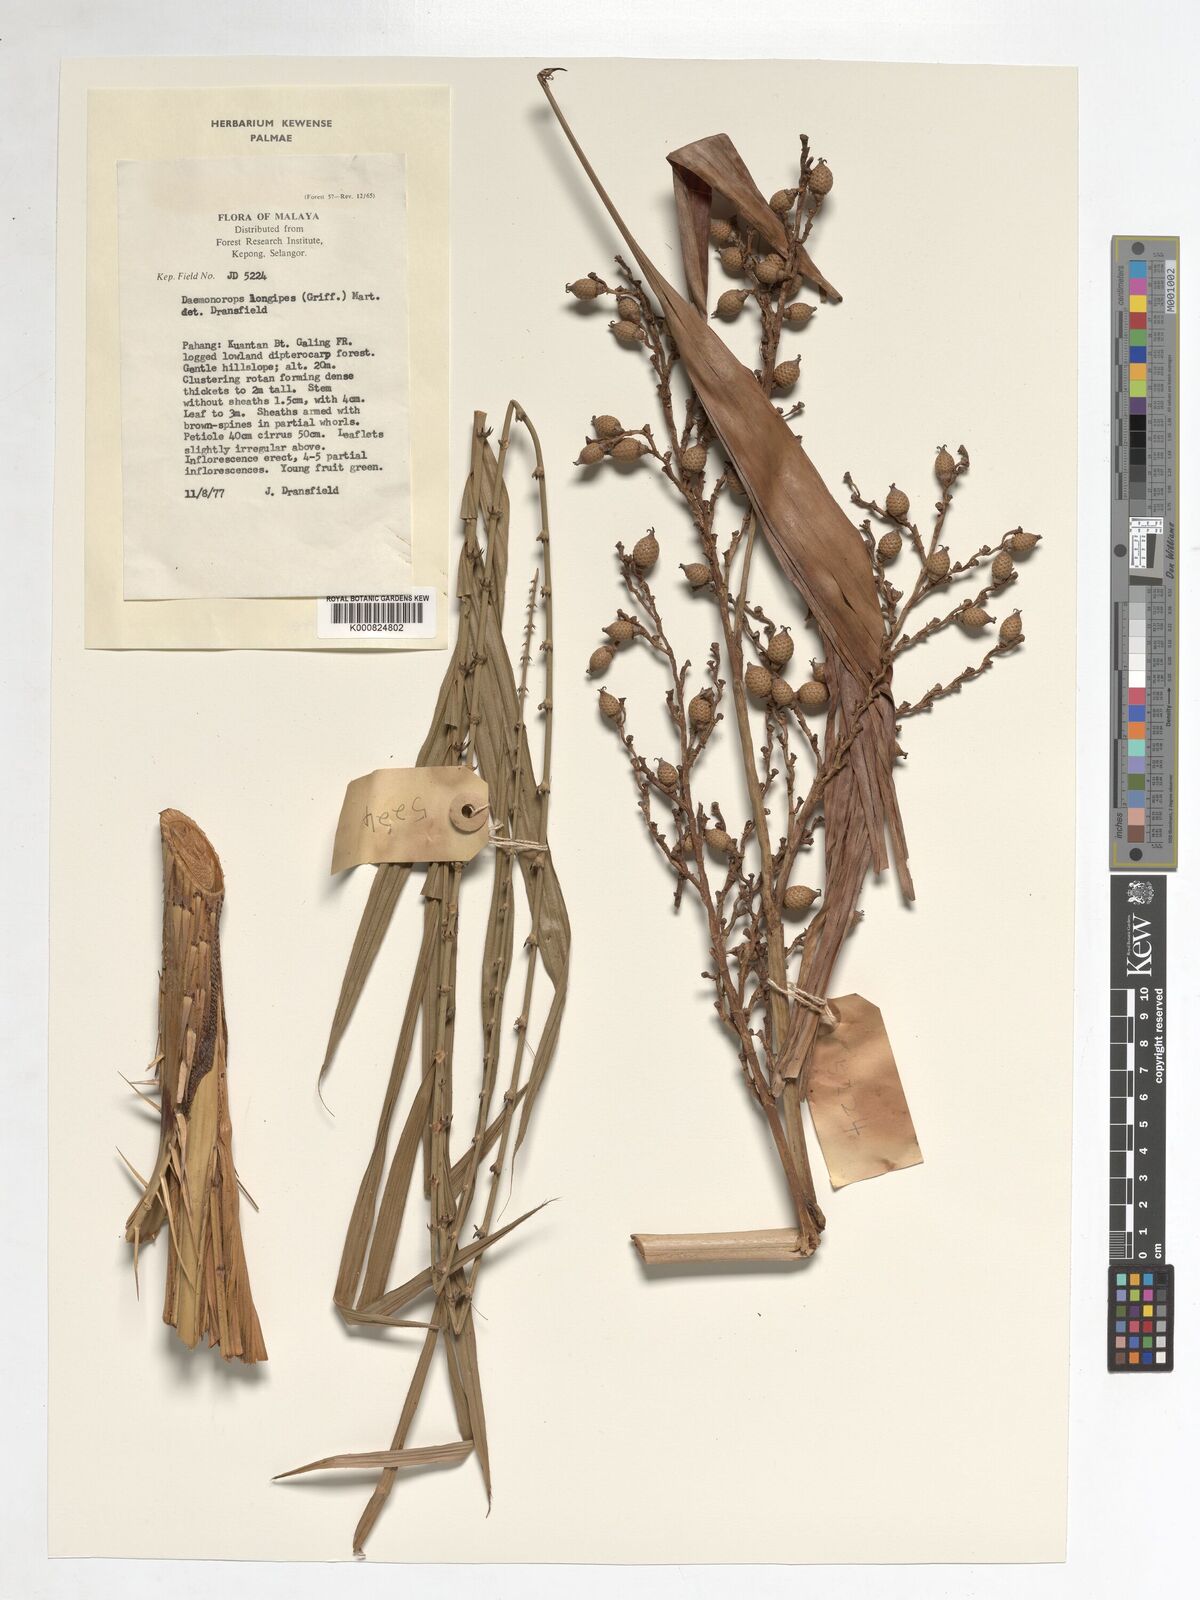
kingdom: Plantae
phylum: Tracheophyta
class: Liliopsida
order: Arecales
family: Arecaceae
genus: Calamus
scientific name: Calamus longipes
